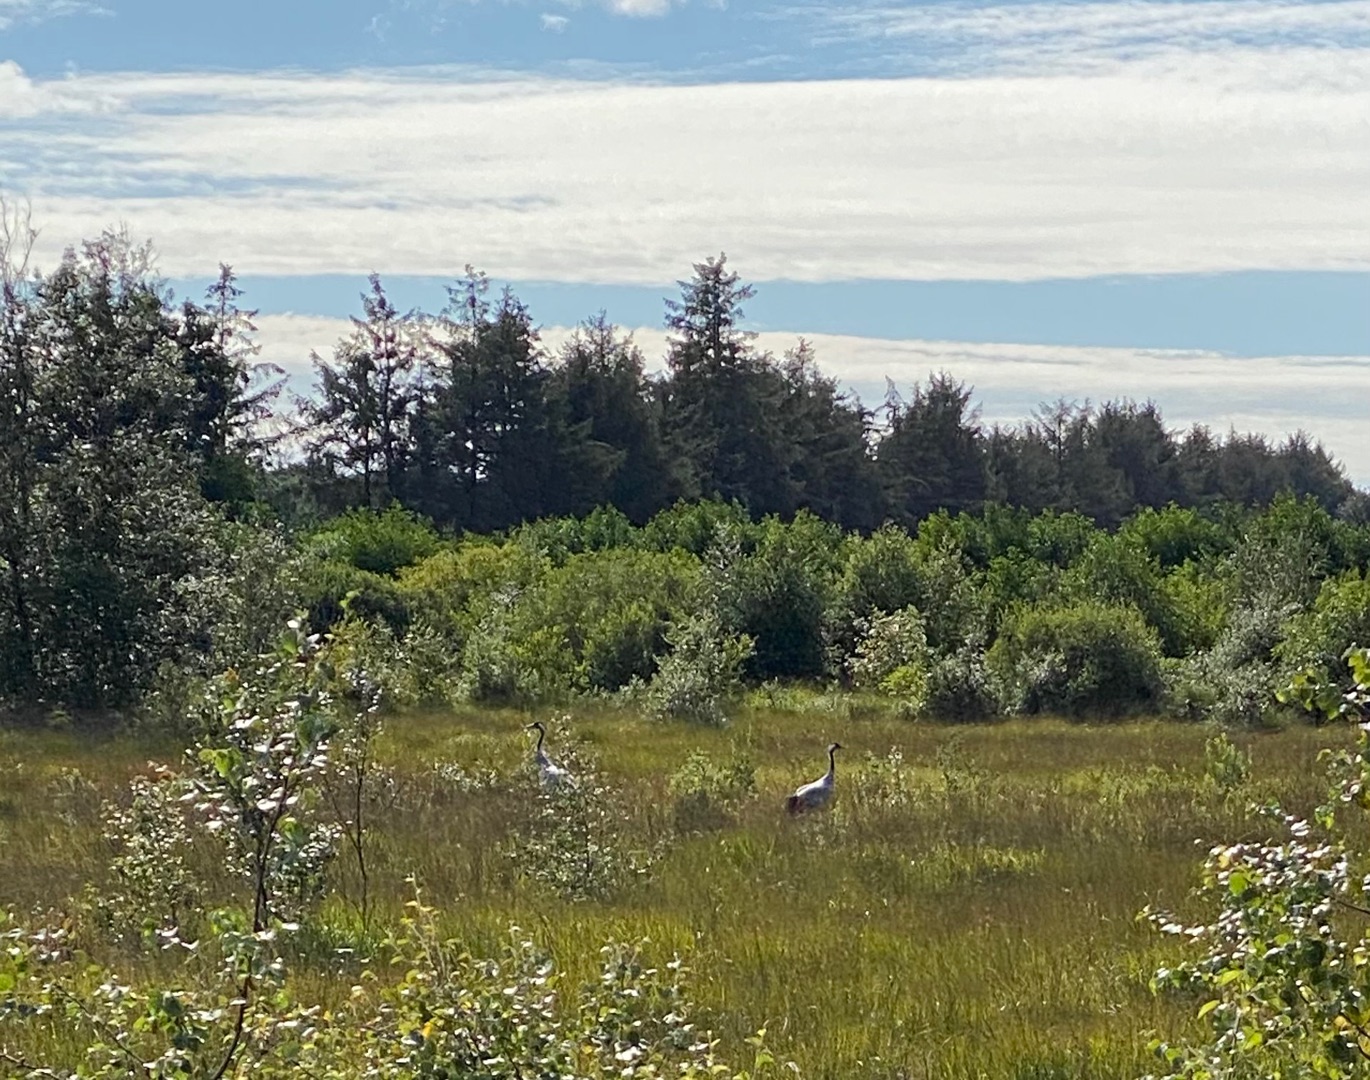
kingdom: Animalia
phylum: Chordata
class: Aves
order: Gruiformes
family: Gruidae
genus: Grus
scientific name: Grus grus
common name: Trane
